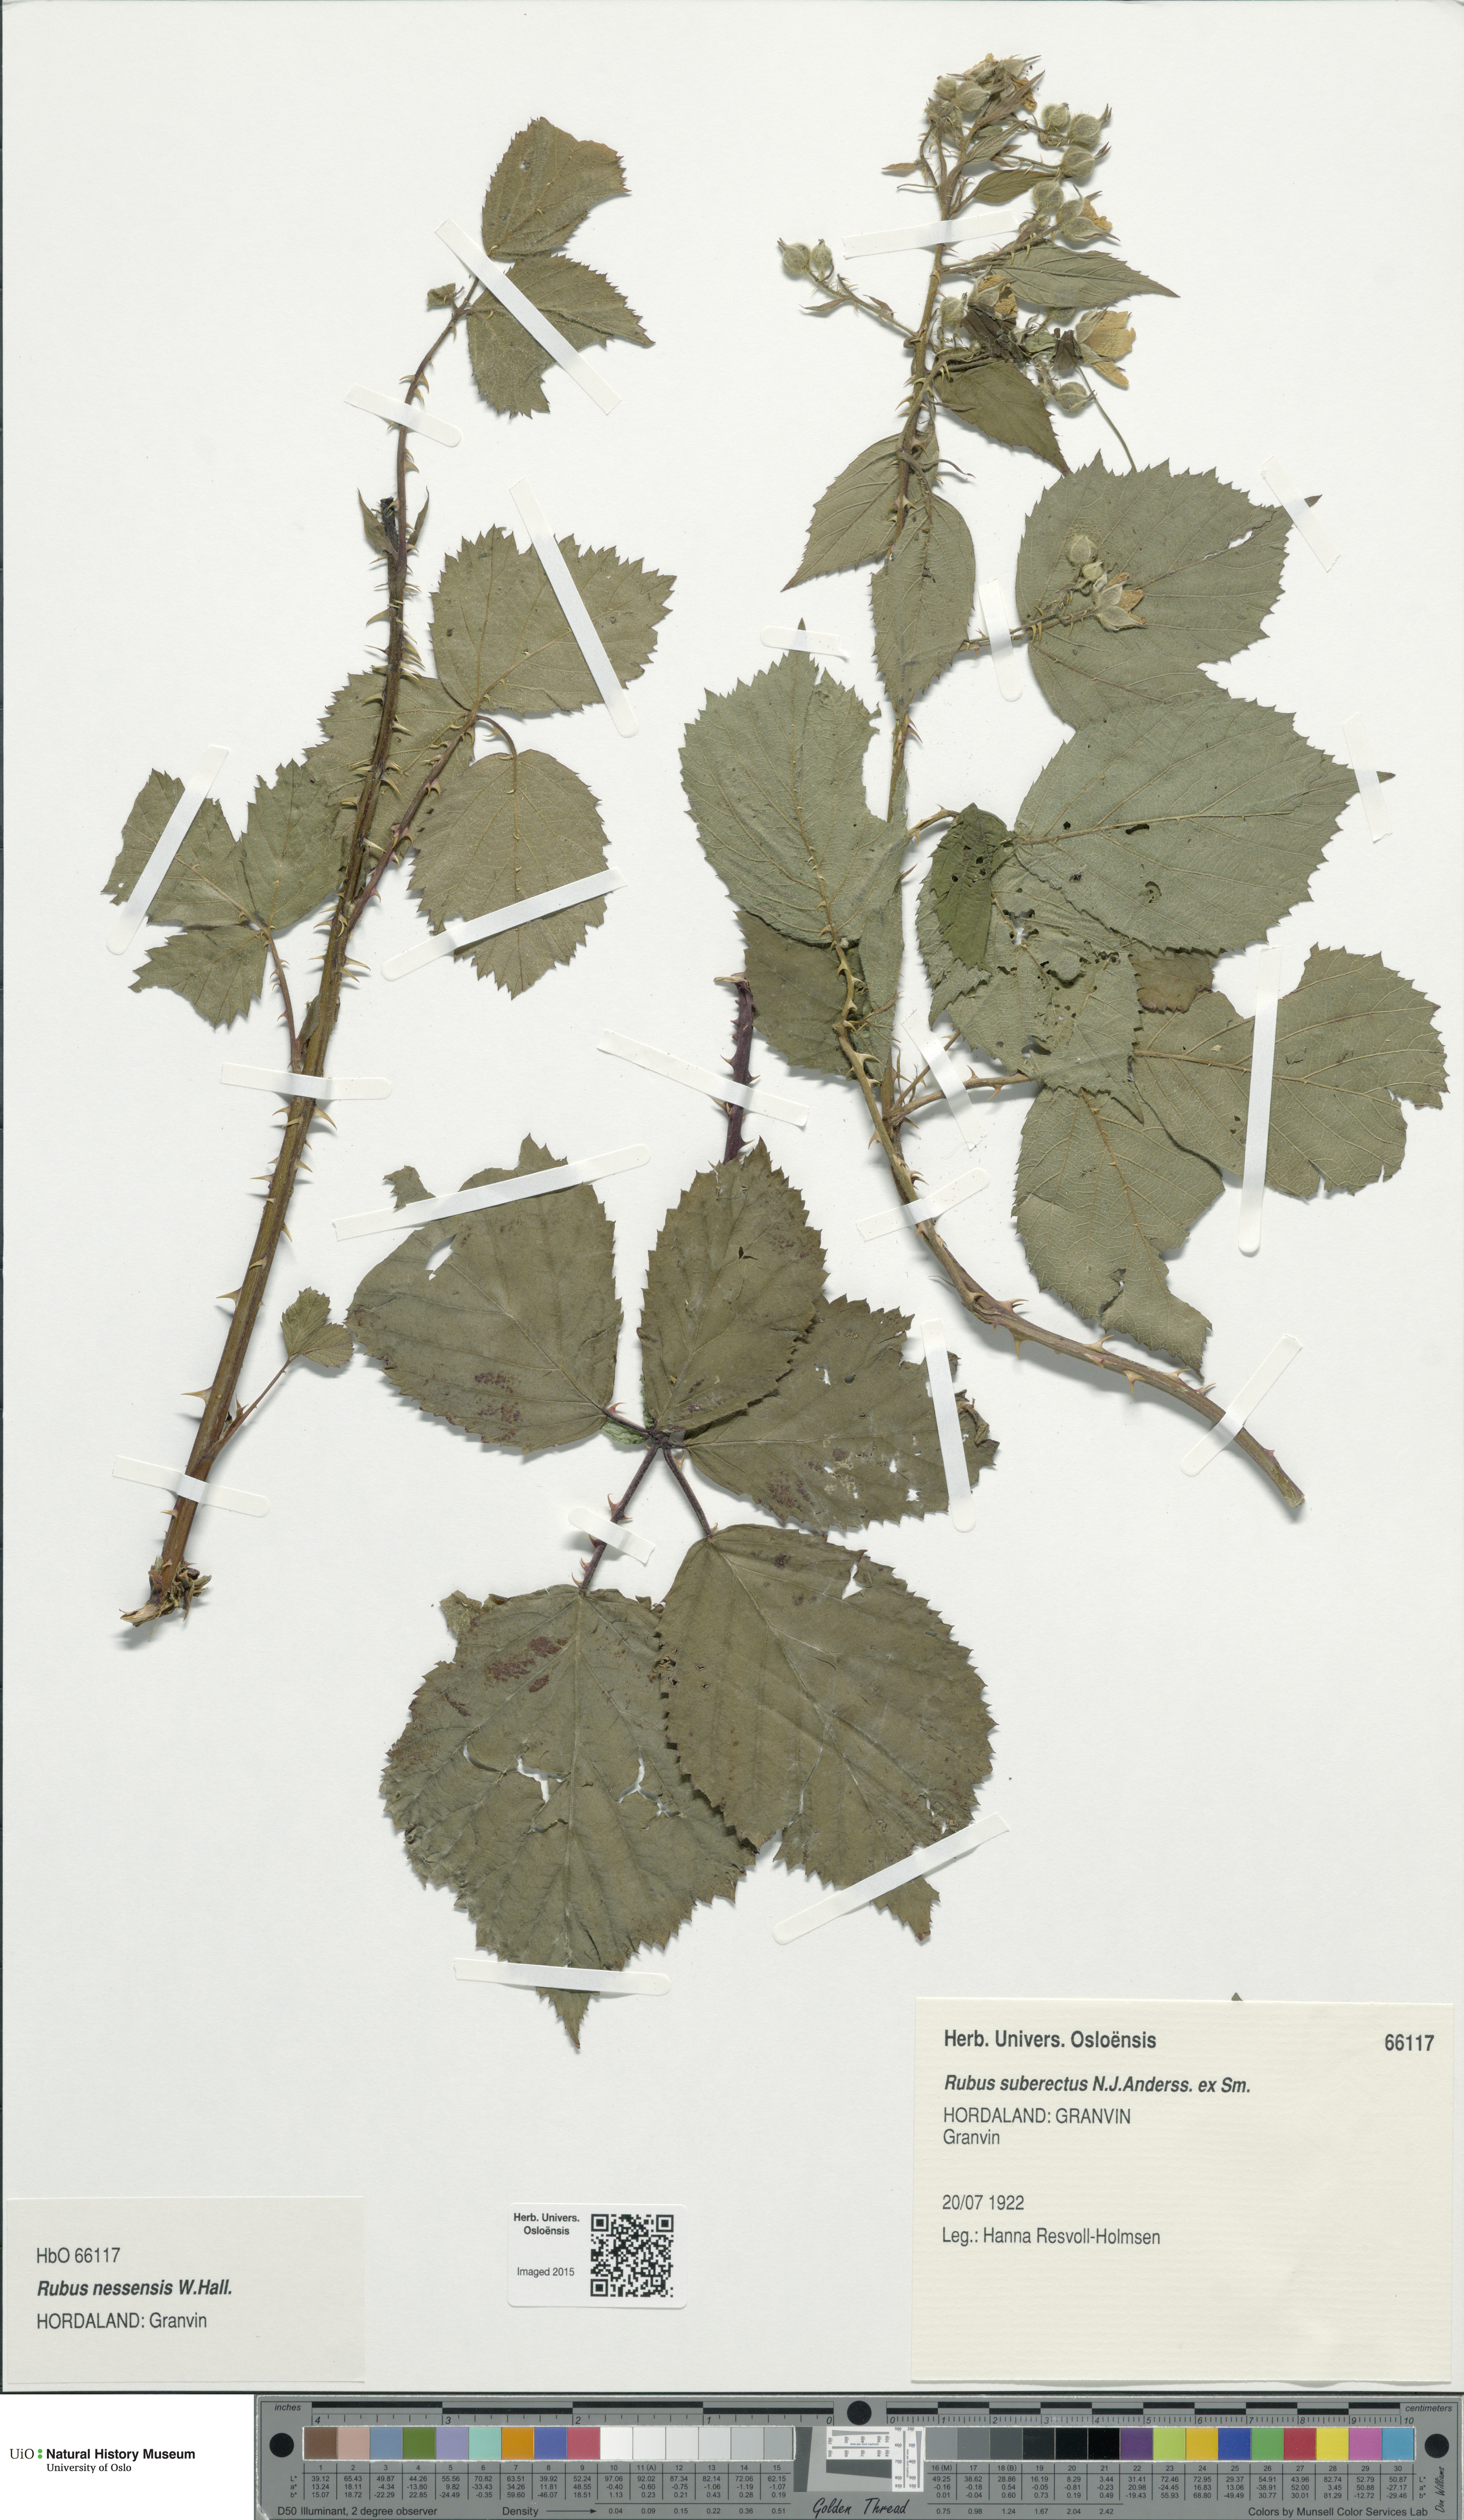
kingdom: Plantae
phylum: Tracheophyta
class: Magnoliopsida
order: Rosales
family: Rosaceae
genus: Rubus
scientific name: Rubus polonicus
